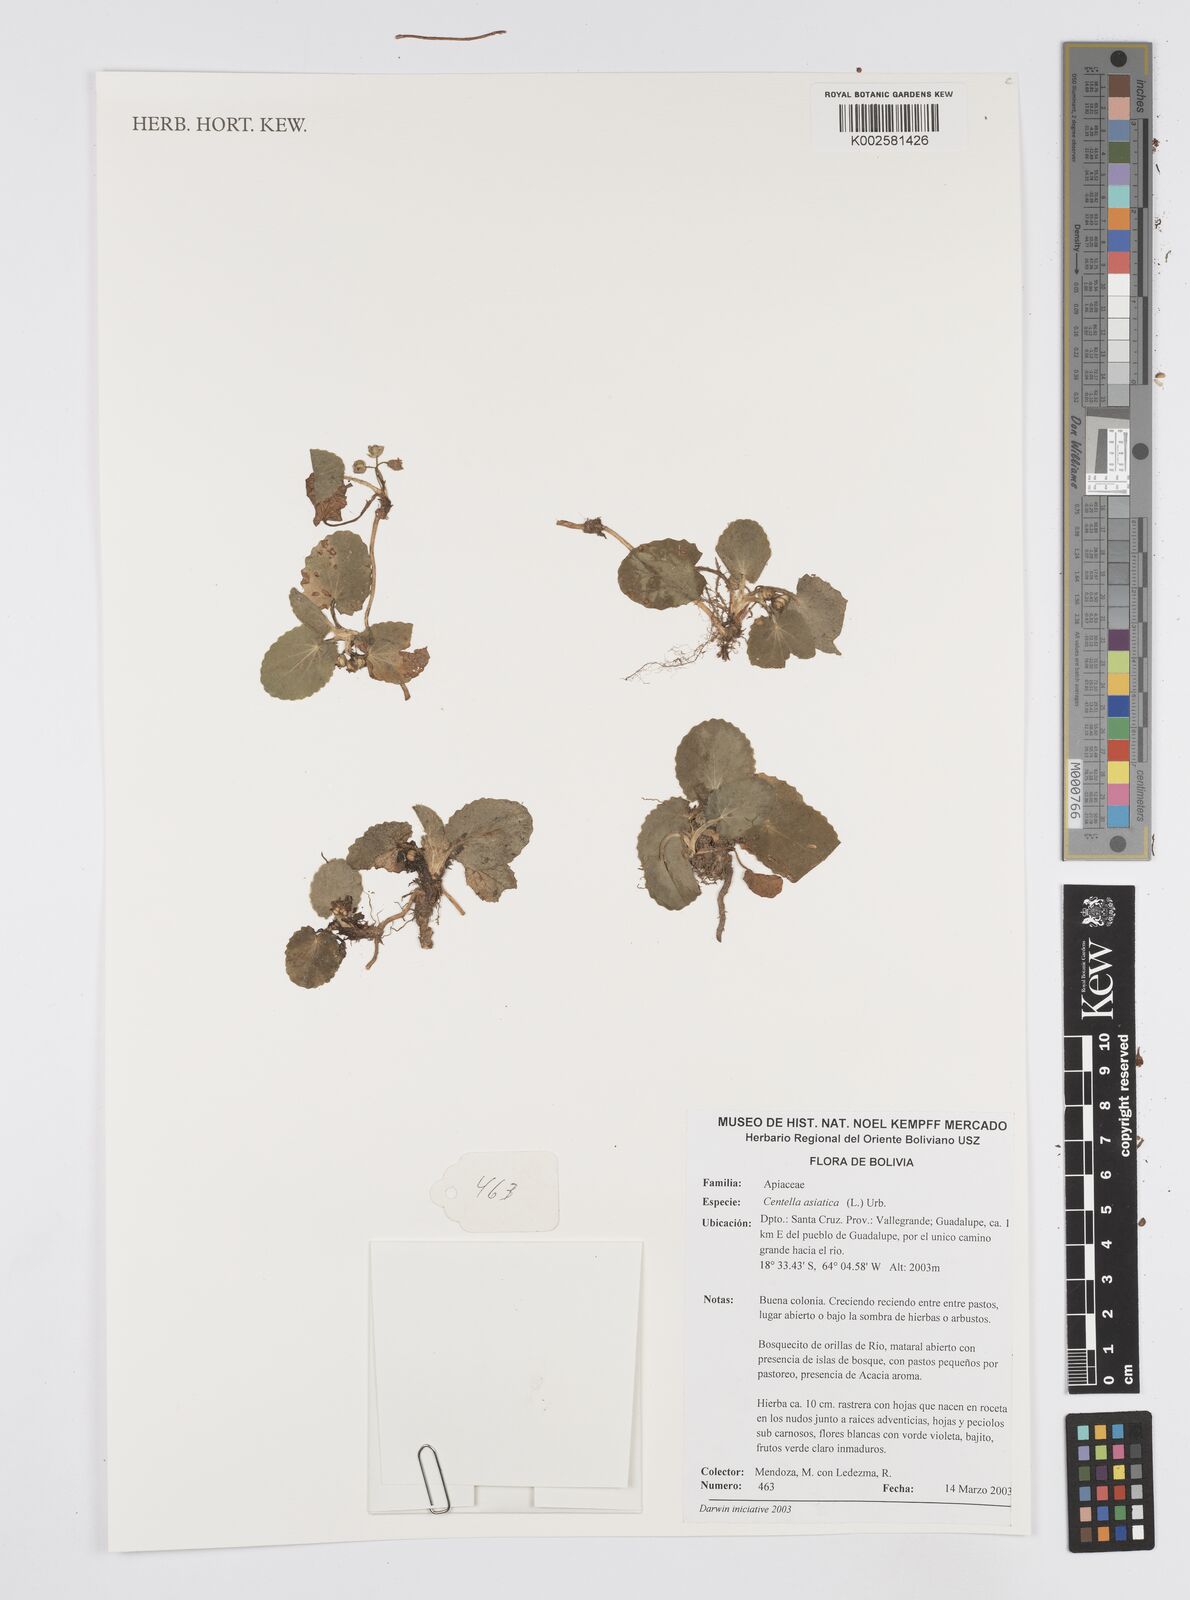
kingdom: Plantae
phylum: Tracheophyta
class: Magnoliopsida
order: Apiales
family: Apiaceae
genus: Centella
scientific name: Centella asiatica
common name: Spadeleaf
